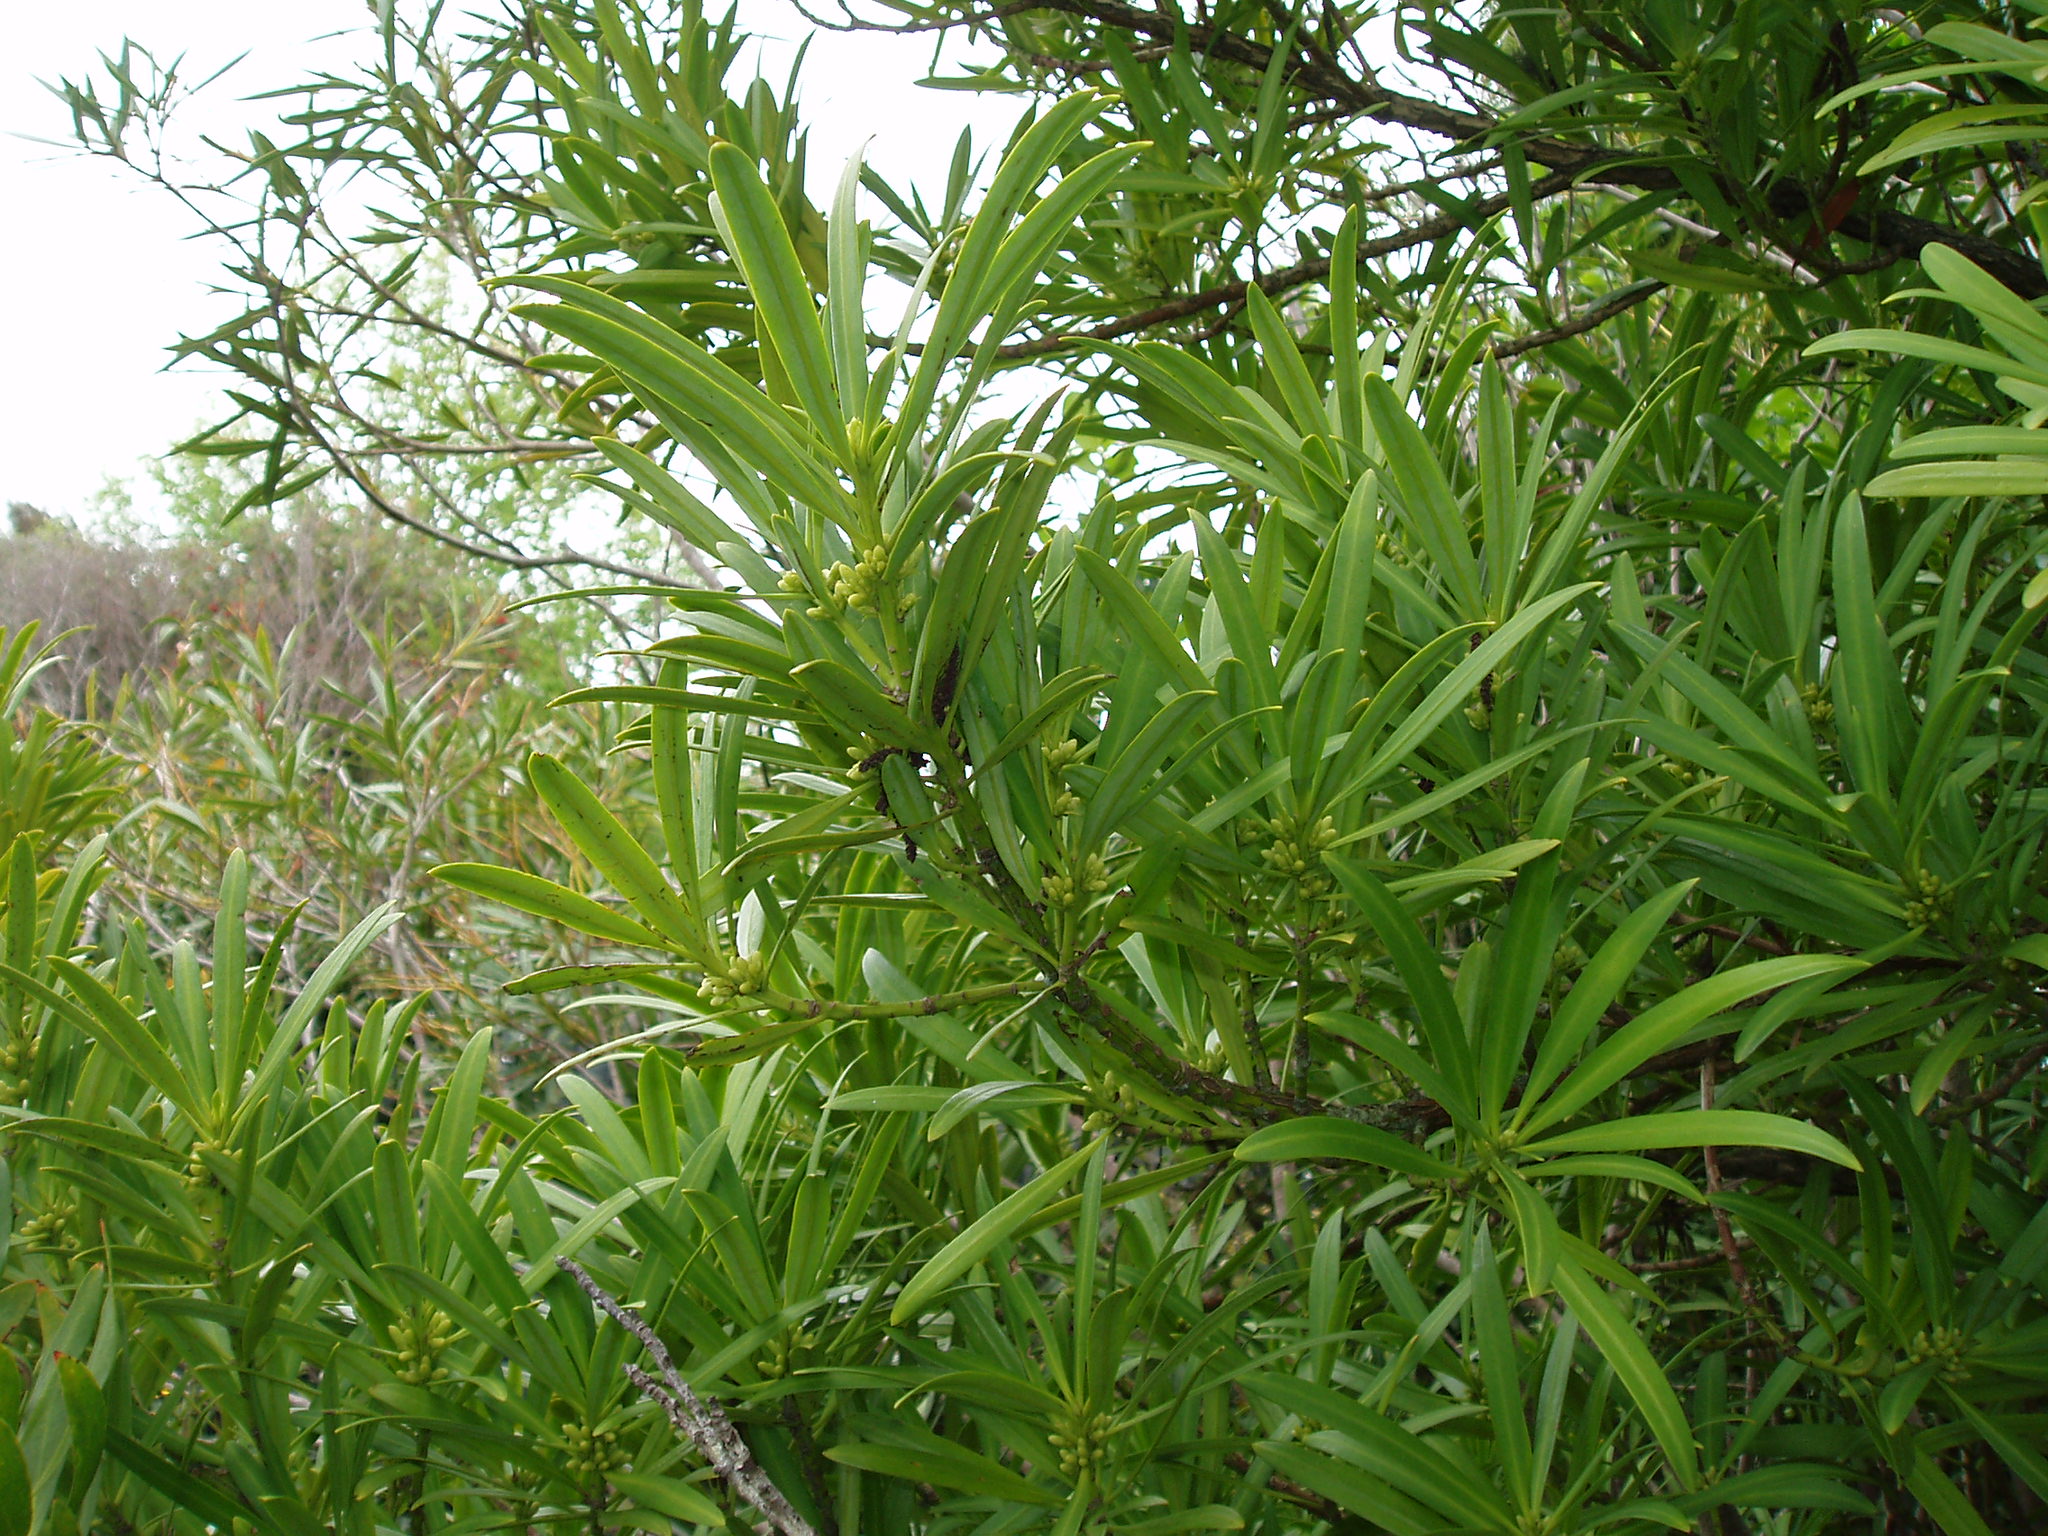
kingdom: Plantae
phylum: Tracheophyta
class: Pinopsida
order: Pinales
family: Podocarpaceae
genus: Podocarpus
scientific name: Podocarpus macrophyllus
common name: Japanese yew
